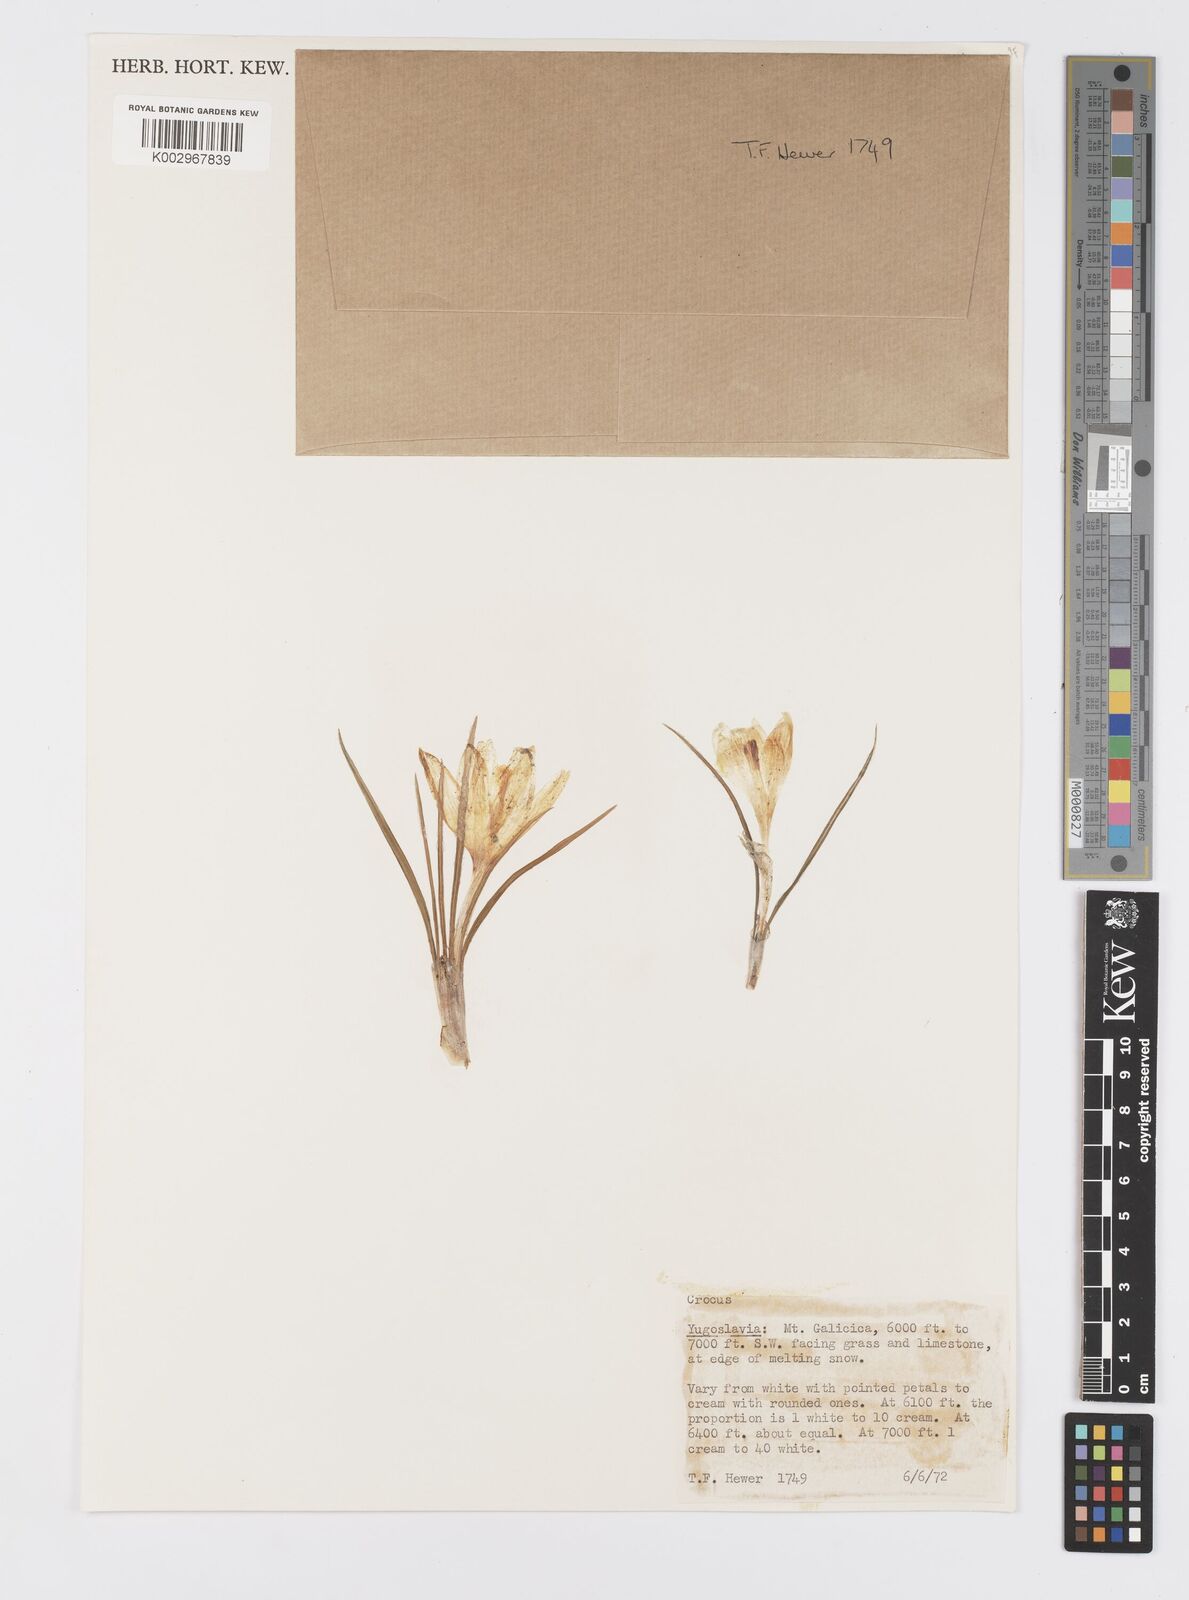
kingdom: Plantae
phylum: Tracheophyta
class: Liliopsida
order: Asparagales
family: Iridaceae
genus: Crocus
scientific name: Crocus cvijicii
